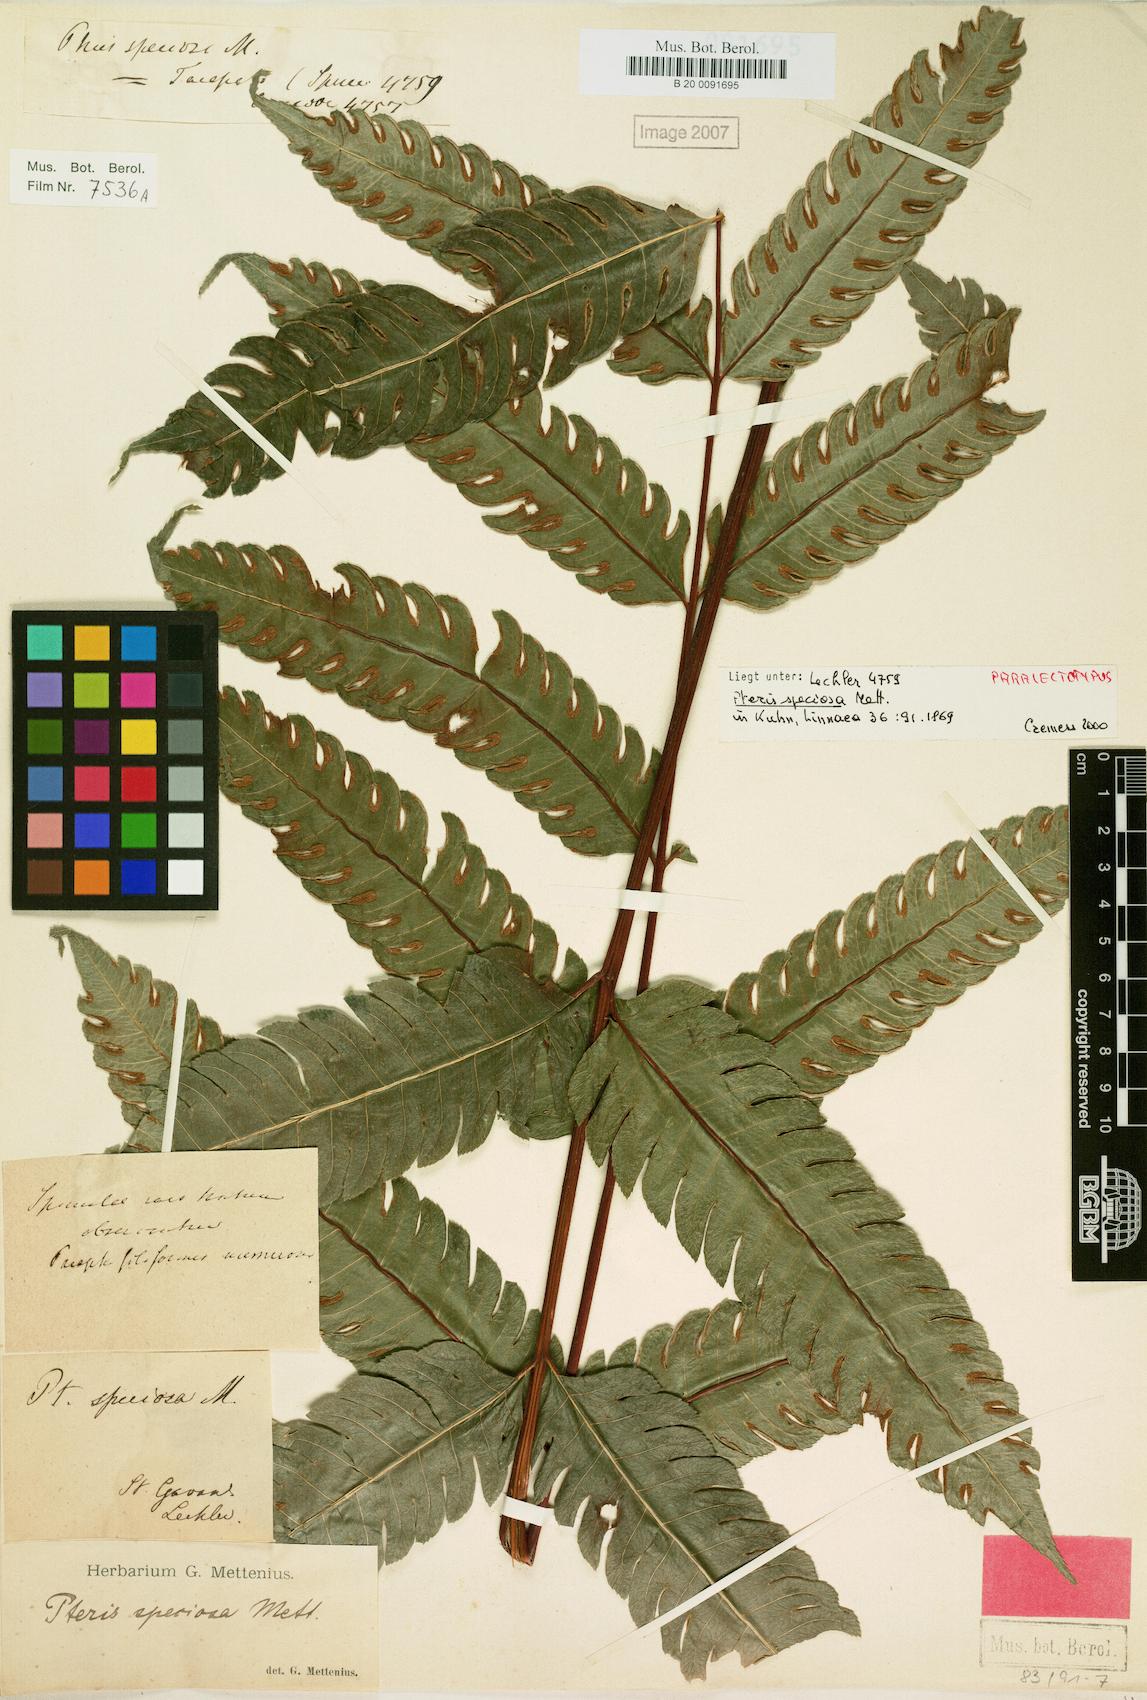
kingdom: Plantae
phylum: Tracheophyta
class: Polypodiopsida
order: Polypodiales
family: Pteridaceae
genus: Pteris
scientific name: Pteris speciosa
